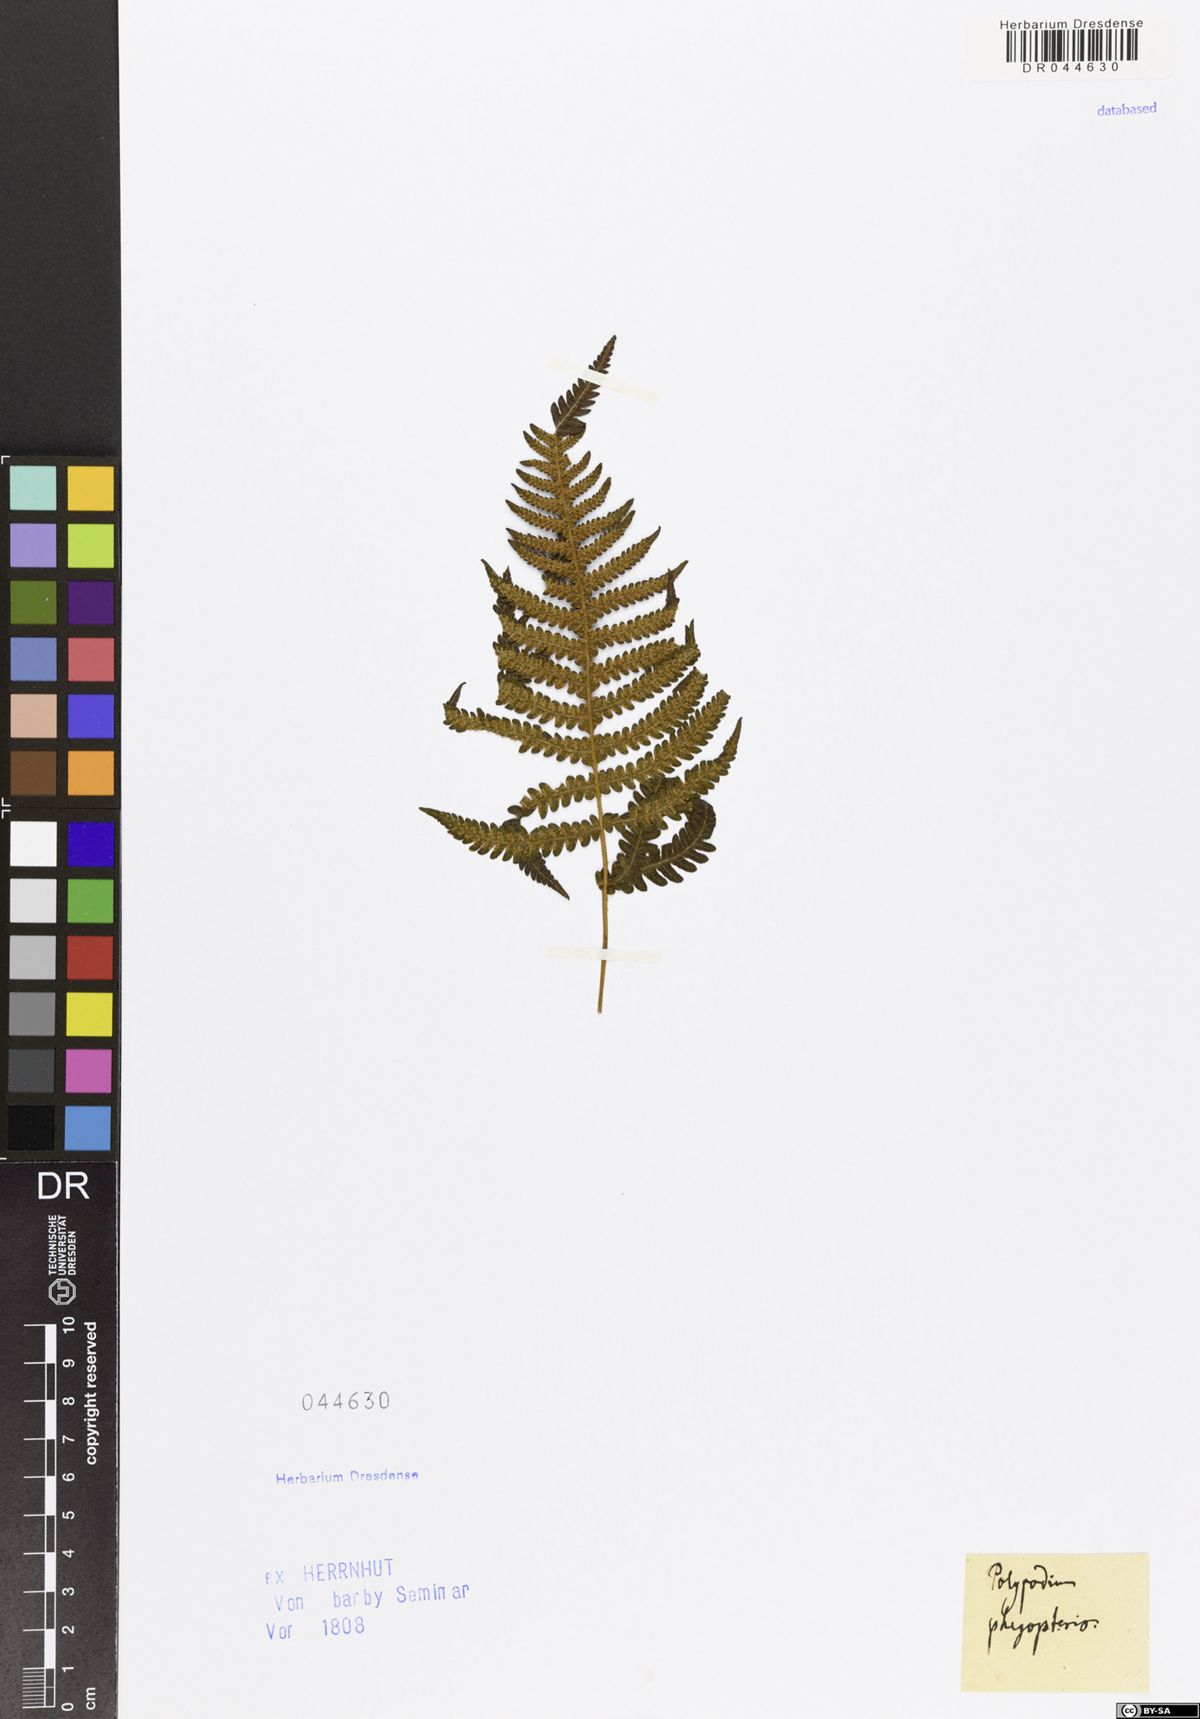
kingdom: Plantae
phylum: Tracheophyta
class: Polypodiopsida
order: Polypodiales
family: Thelypteridaceae
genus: Phegopteris
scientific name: Phegopteris connectilis
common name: Beech fern
